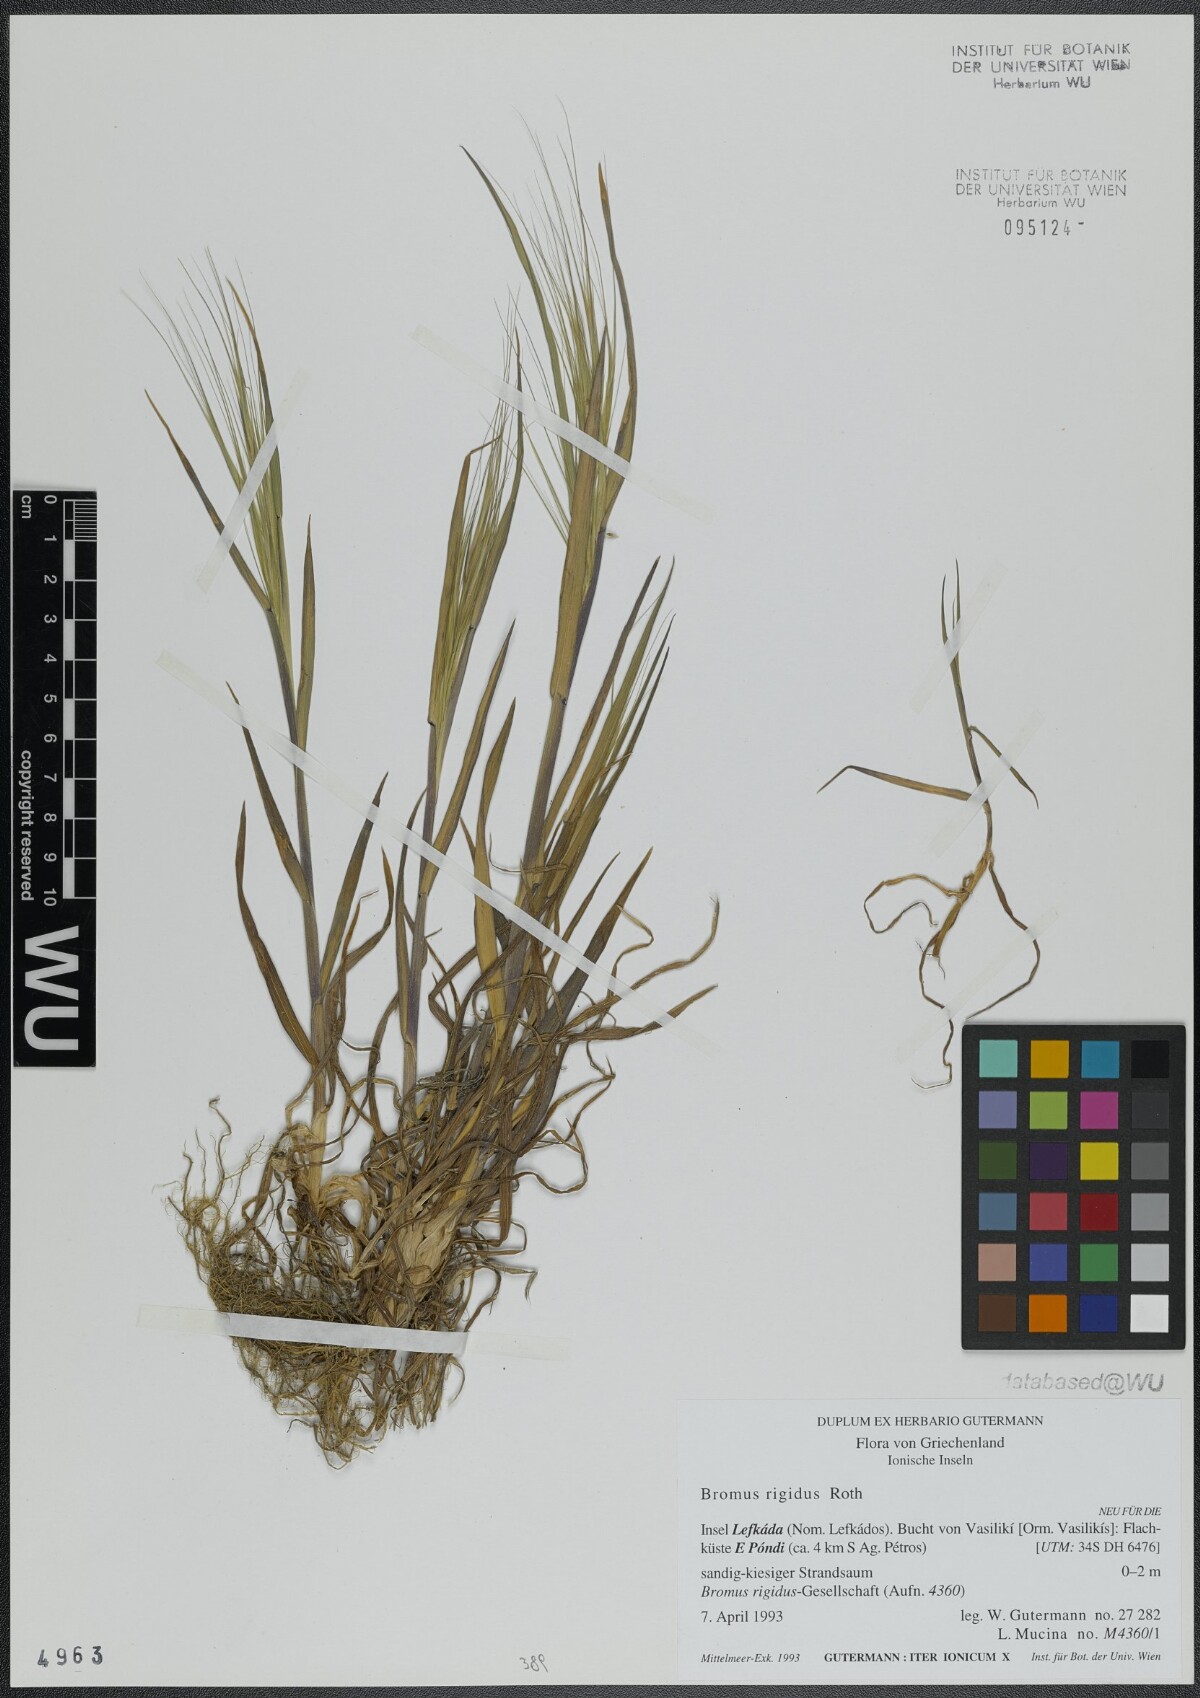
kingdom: Plantae
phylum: Tracheophyta
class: Liliopsida
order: Poales
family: Poaceae
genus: Bromus
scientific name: Bromus rigidus
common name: Ripgut brome
